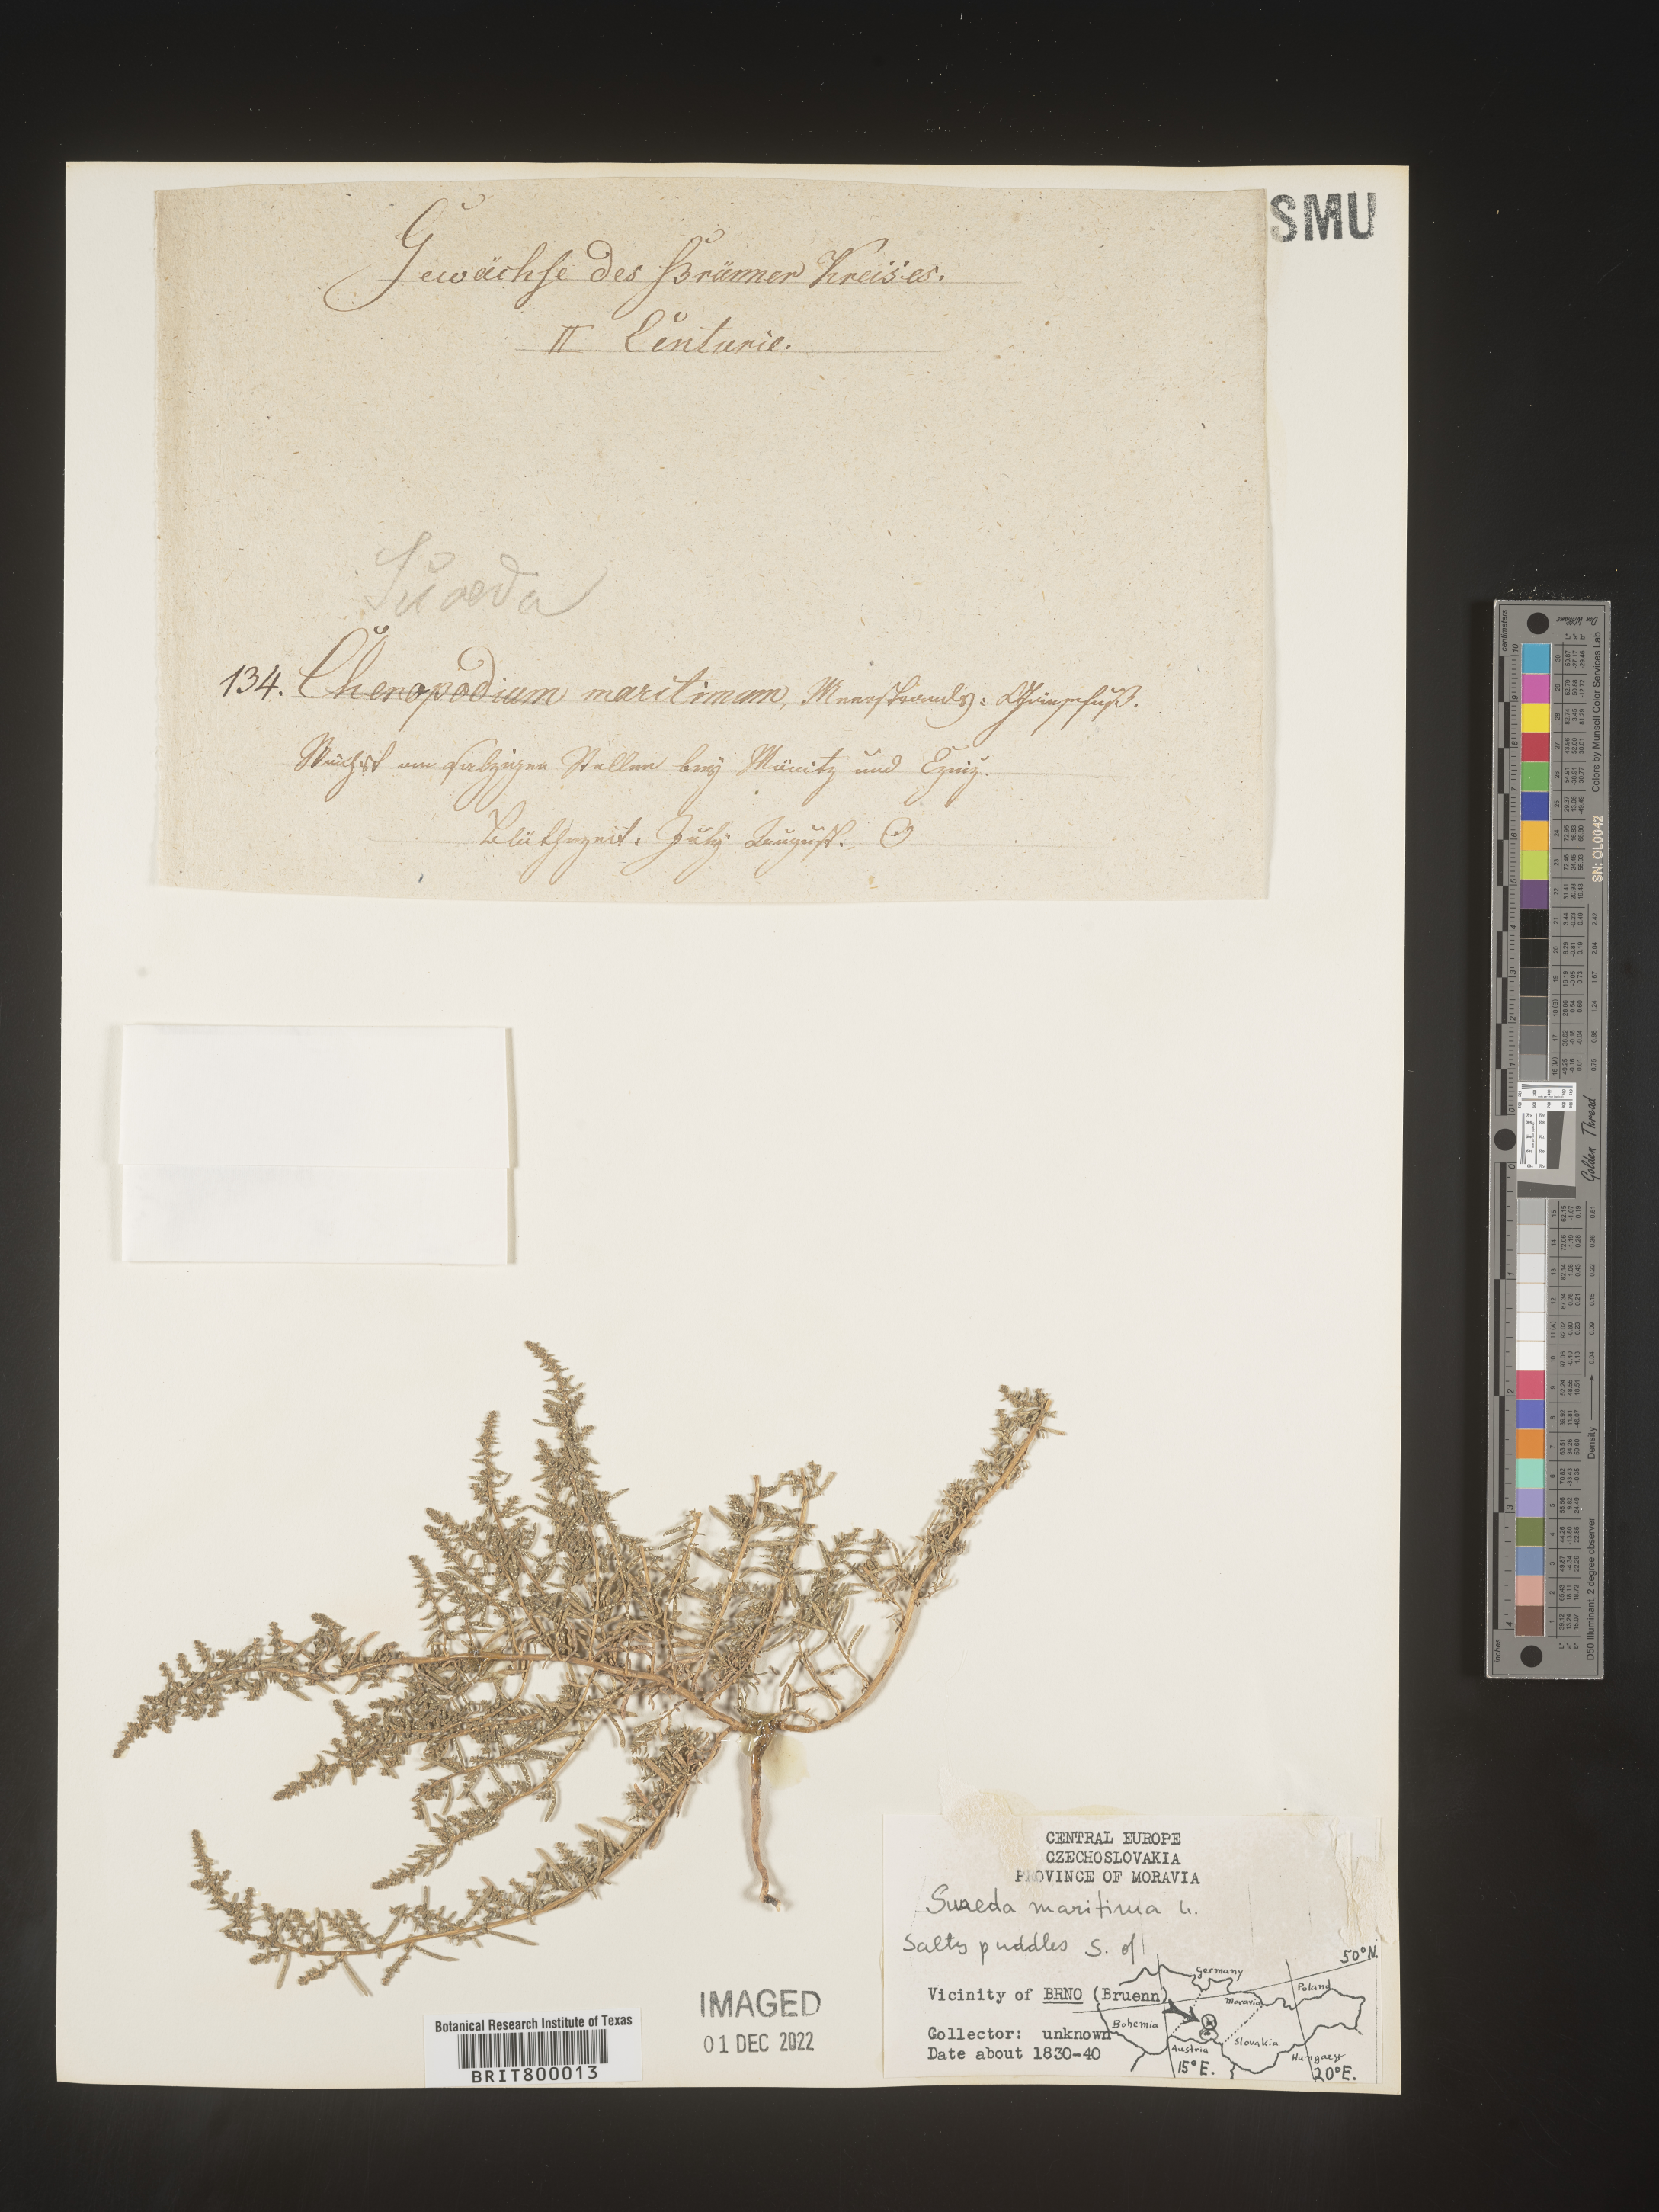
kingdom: Plantae
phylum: Tracheophyta
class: Magnoliopsida
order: Caryophyllales
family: Amaranthaceae
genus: Suaeda
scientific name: Suaeda
